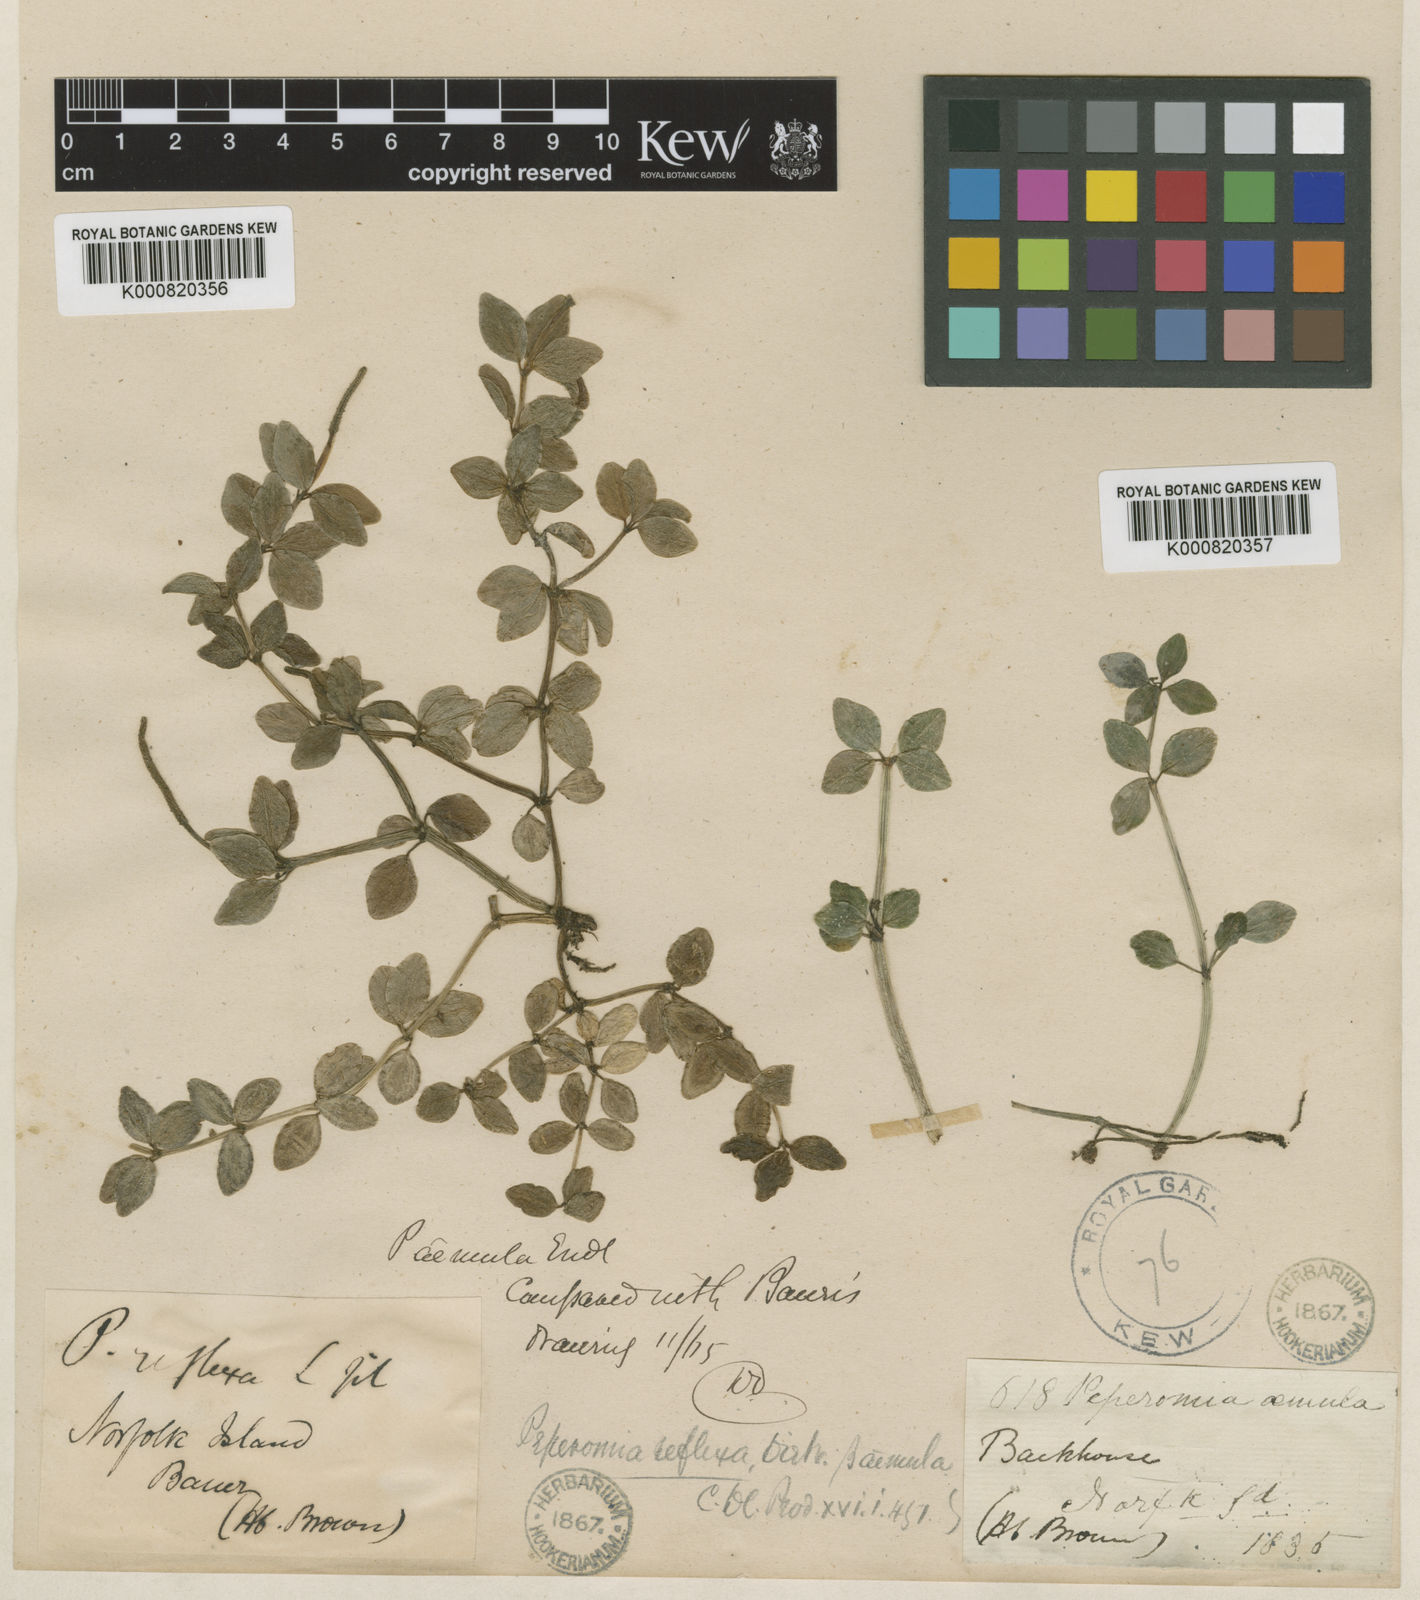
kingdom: Plantae
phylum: Tracheophyta
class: Magnoliopsida
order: Piperales
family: Piperaceae
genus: Peperomia
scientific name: Peperomia tetraphylla
